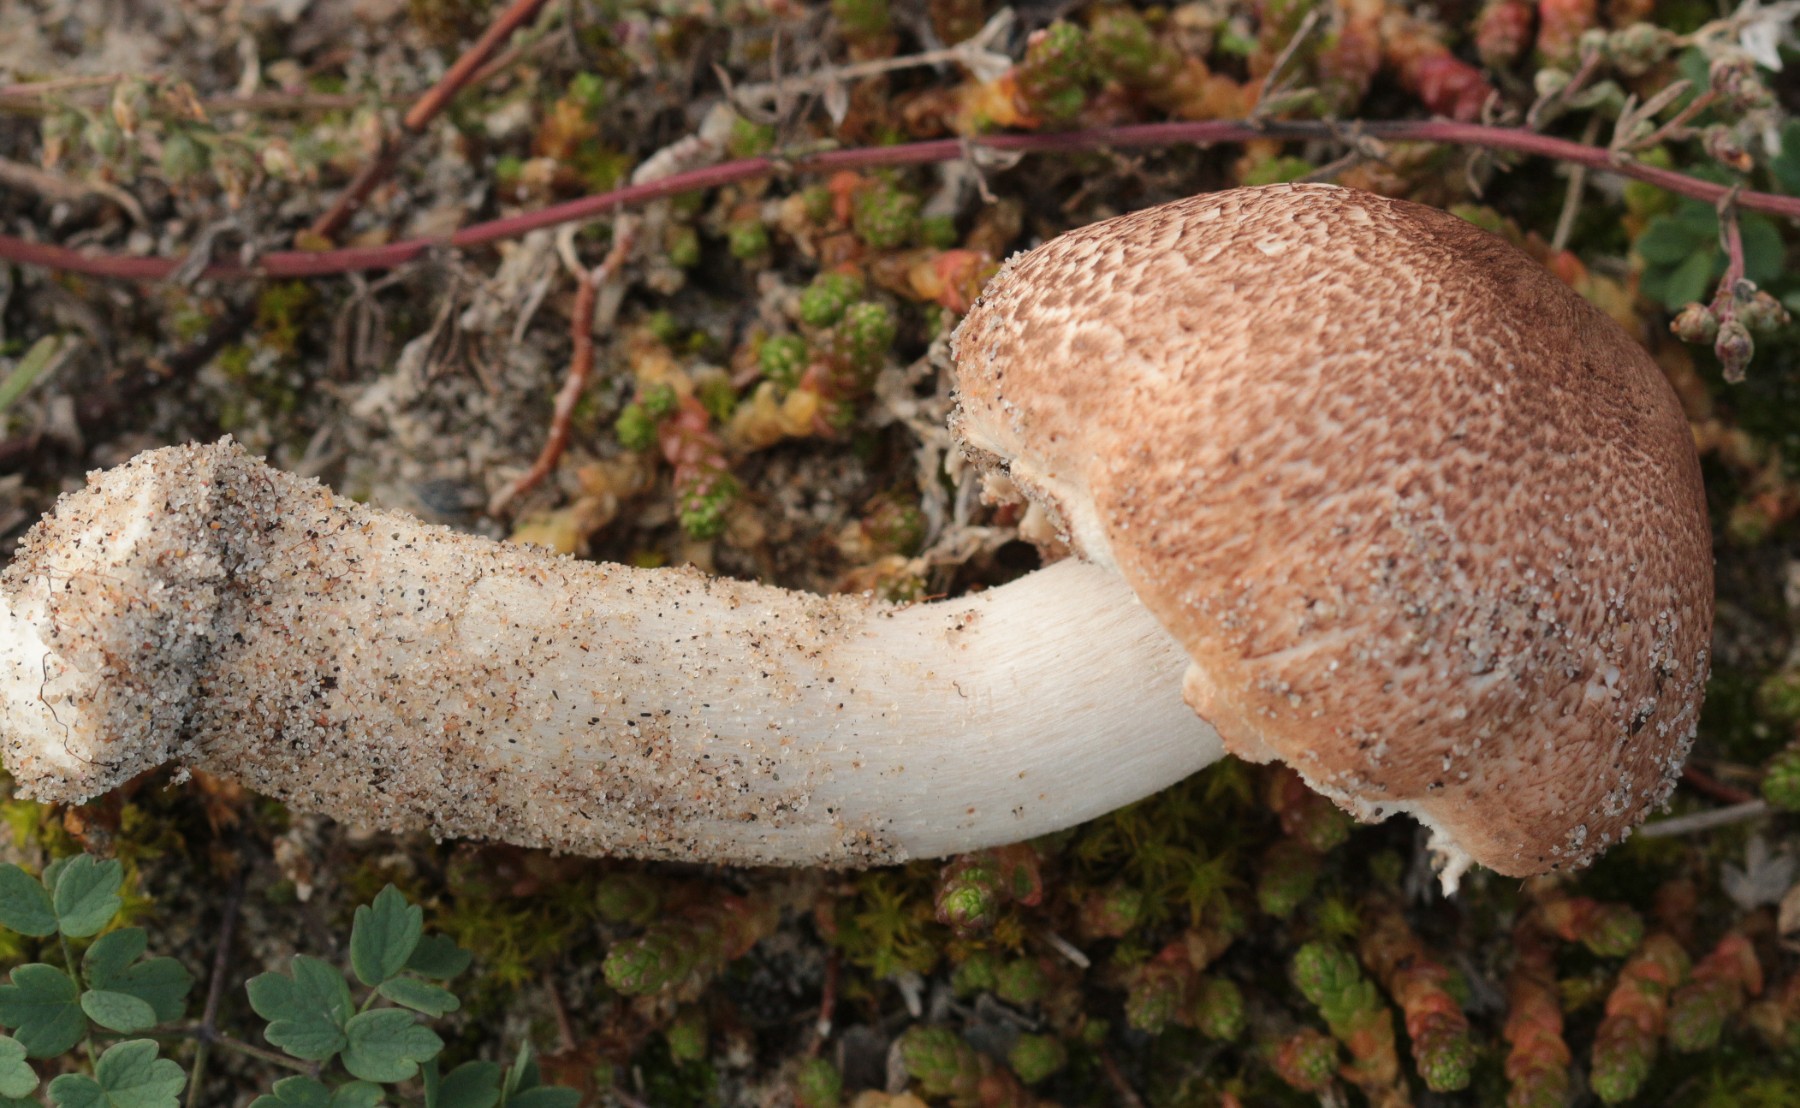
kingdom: Fungi
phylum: Basidiomycota
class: Agaricomycetes
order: Agaricales
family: Agaricaceae
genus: Agaricus
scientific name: Agaricus
